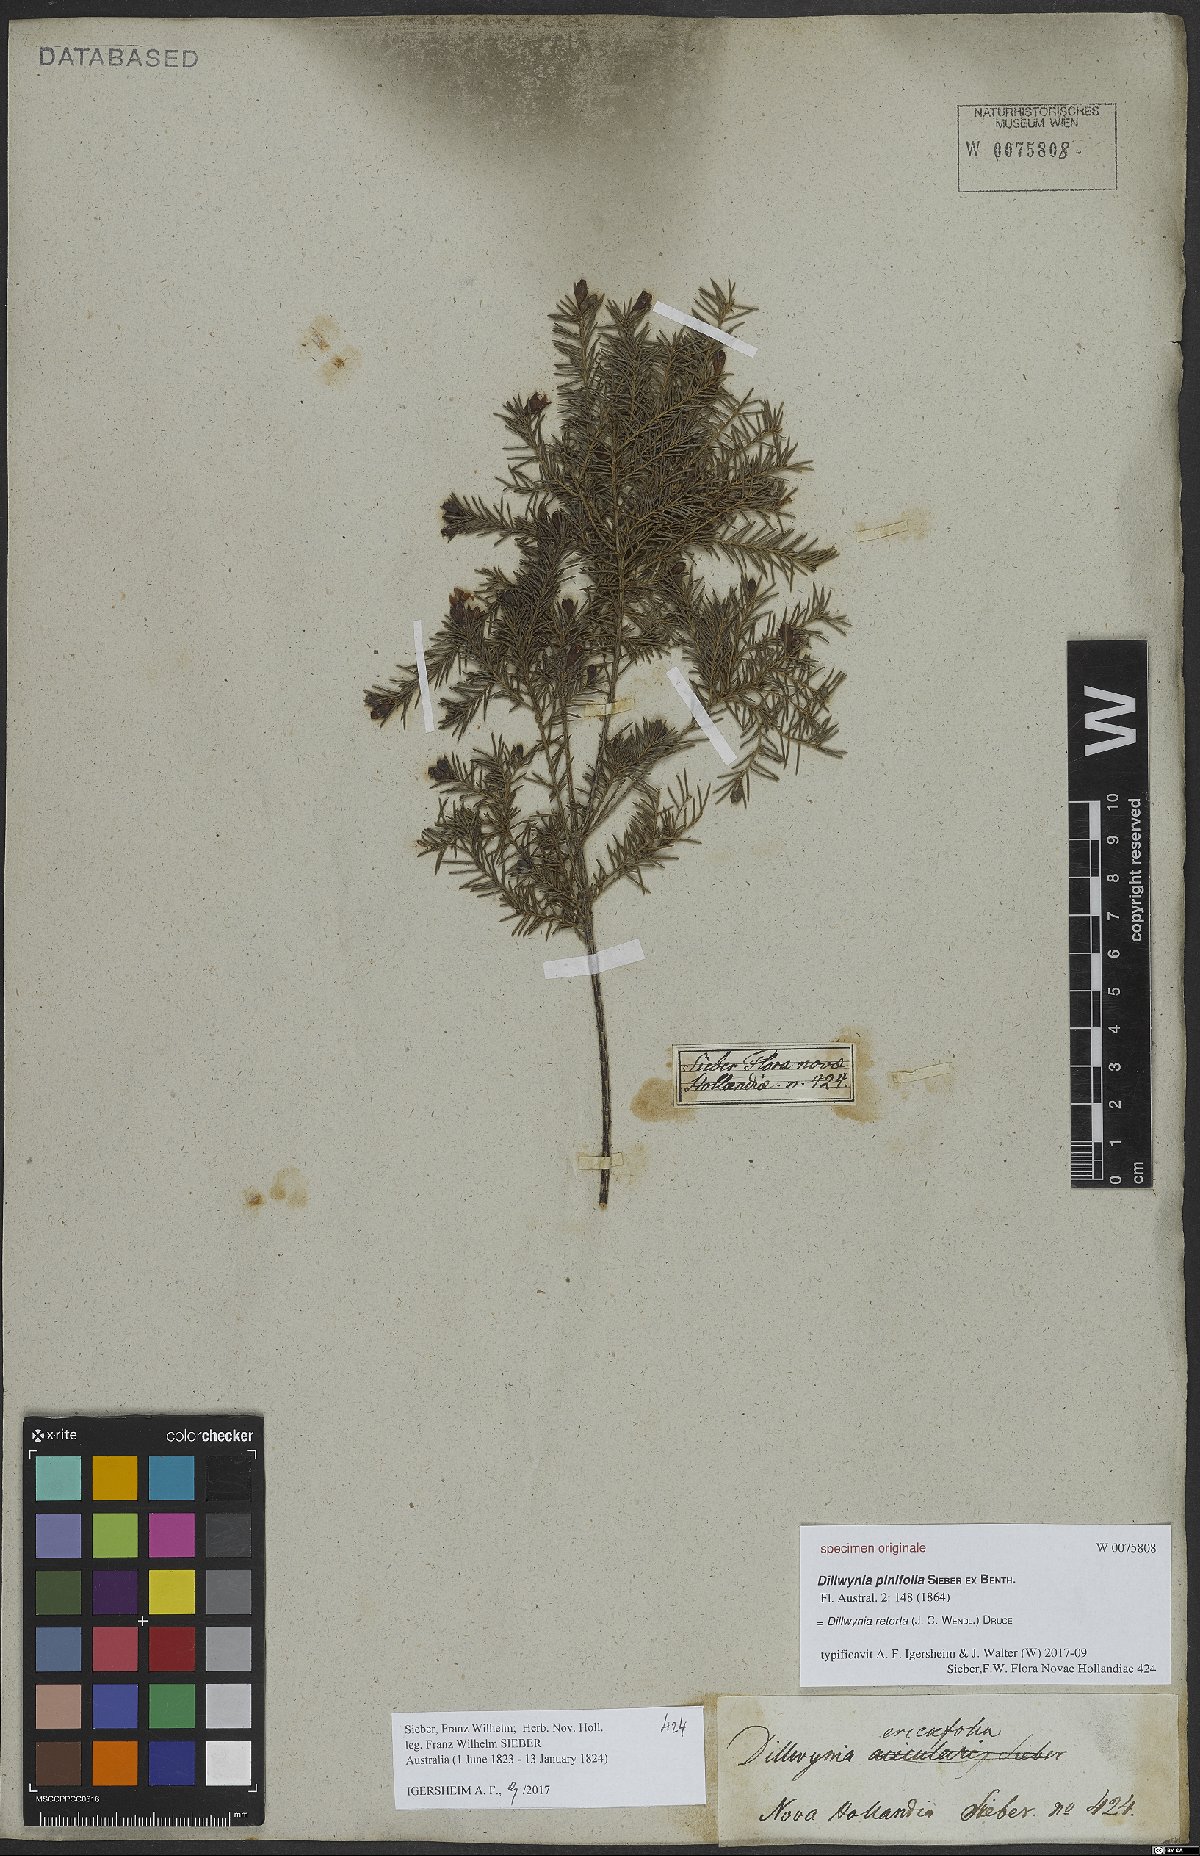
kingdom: Plantae
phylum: Tracheophyta
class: Magnoliopsida
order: Fabales
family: Fabaceae
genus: Dillwynia
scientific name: Dillwynia retorta
